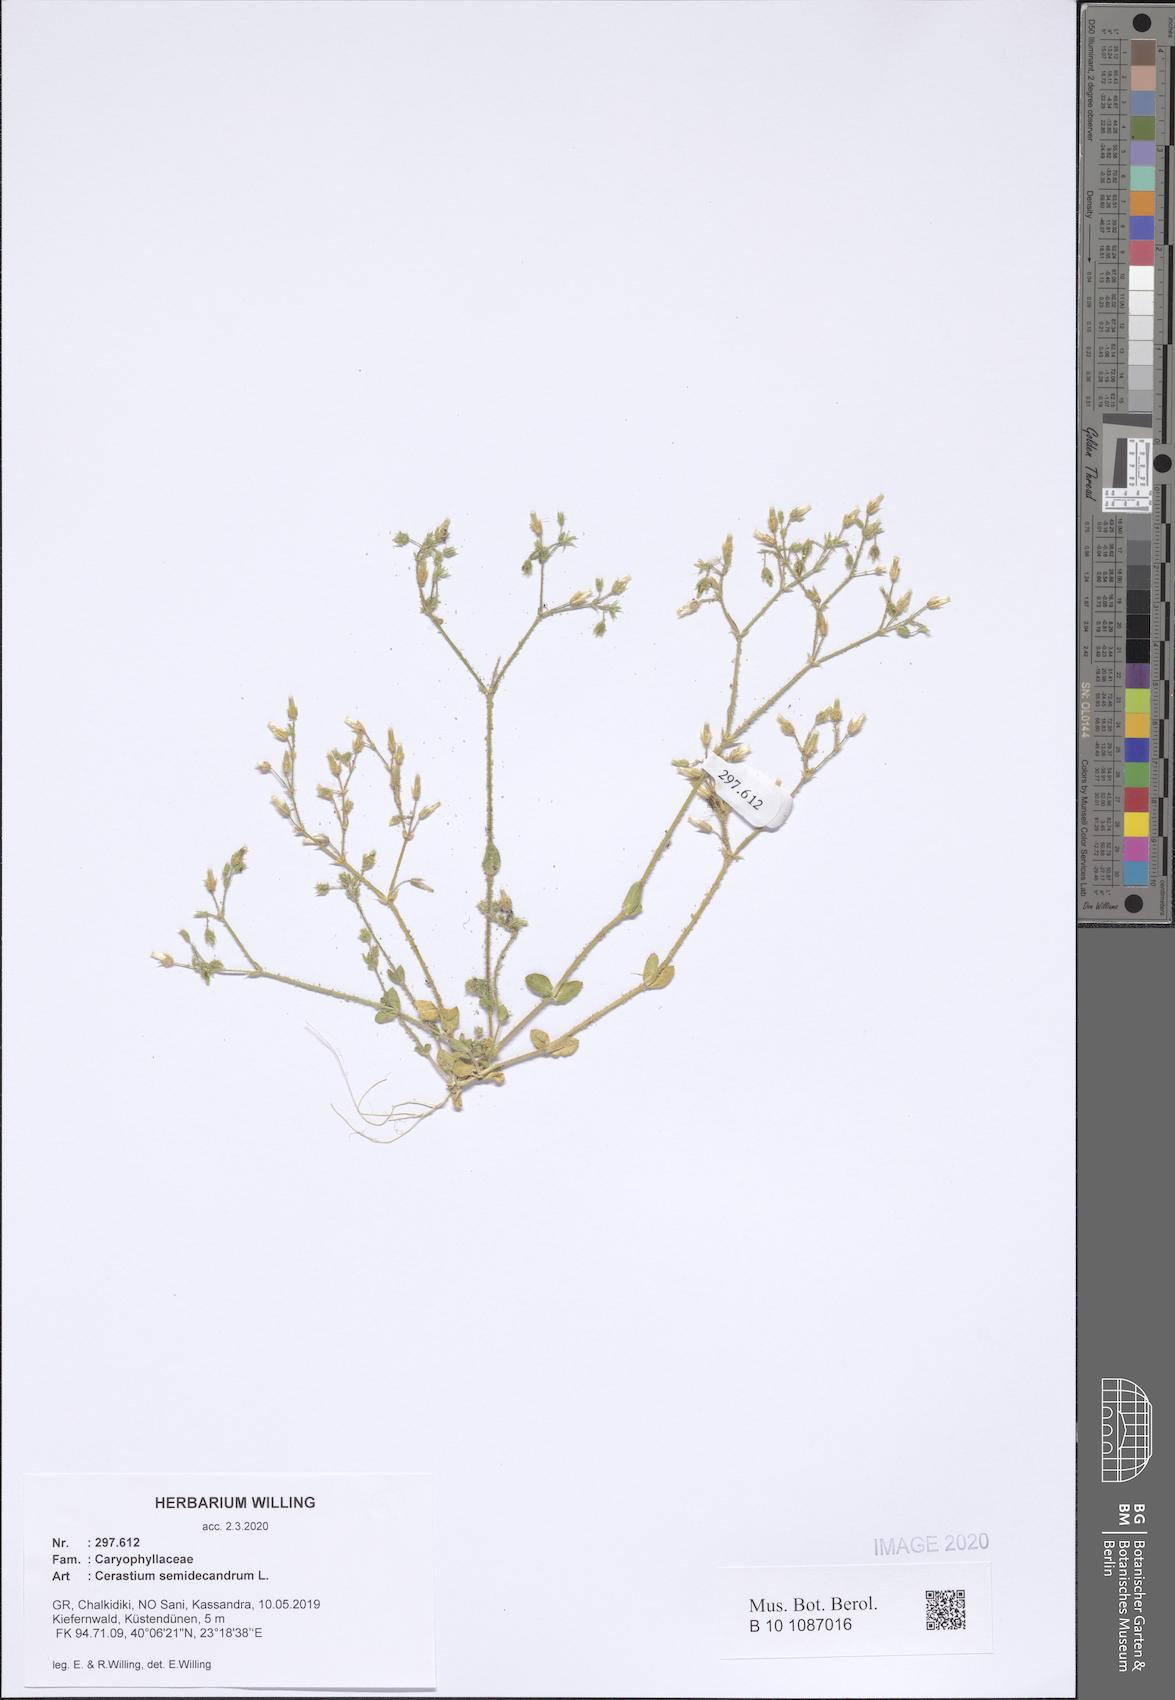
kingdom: Plantae
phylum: Tracheophyta
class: Magnoliopsida
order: Caryophyllales
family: Caryophyllaceae
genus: Cerastium
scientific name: Cerastium semidecandrum
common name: Little mouse-ear
